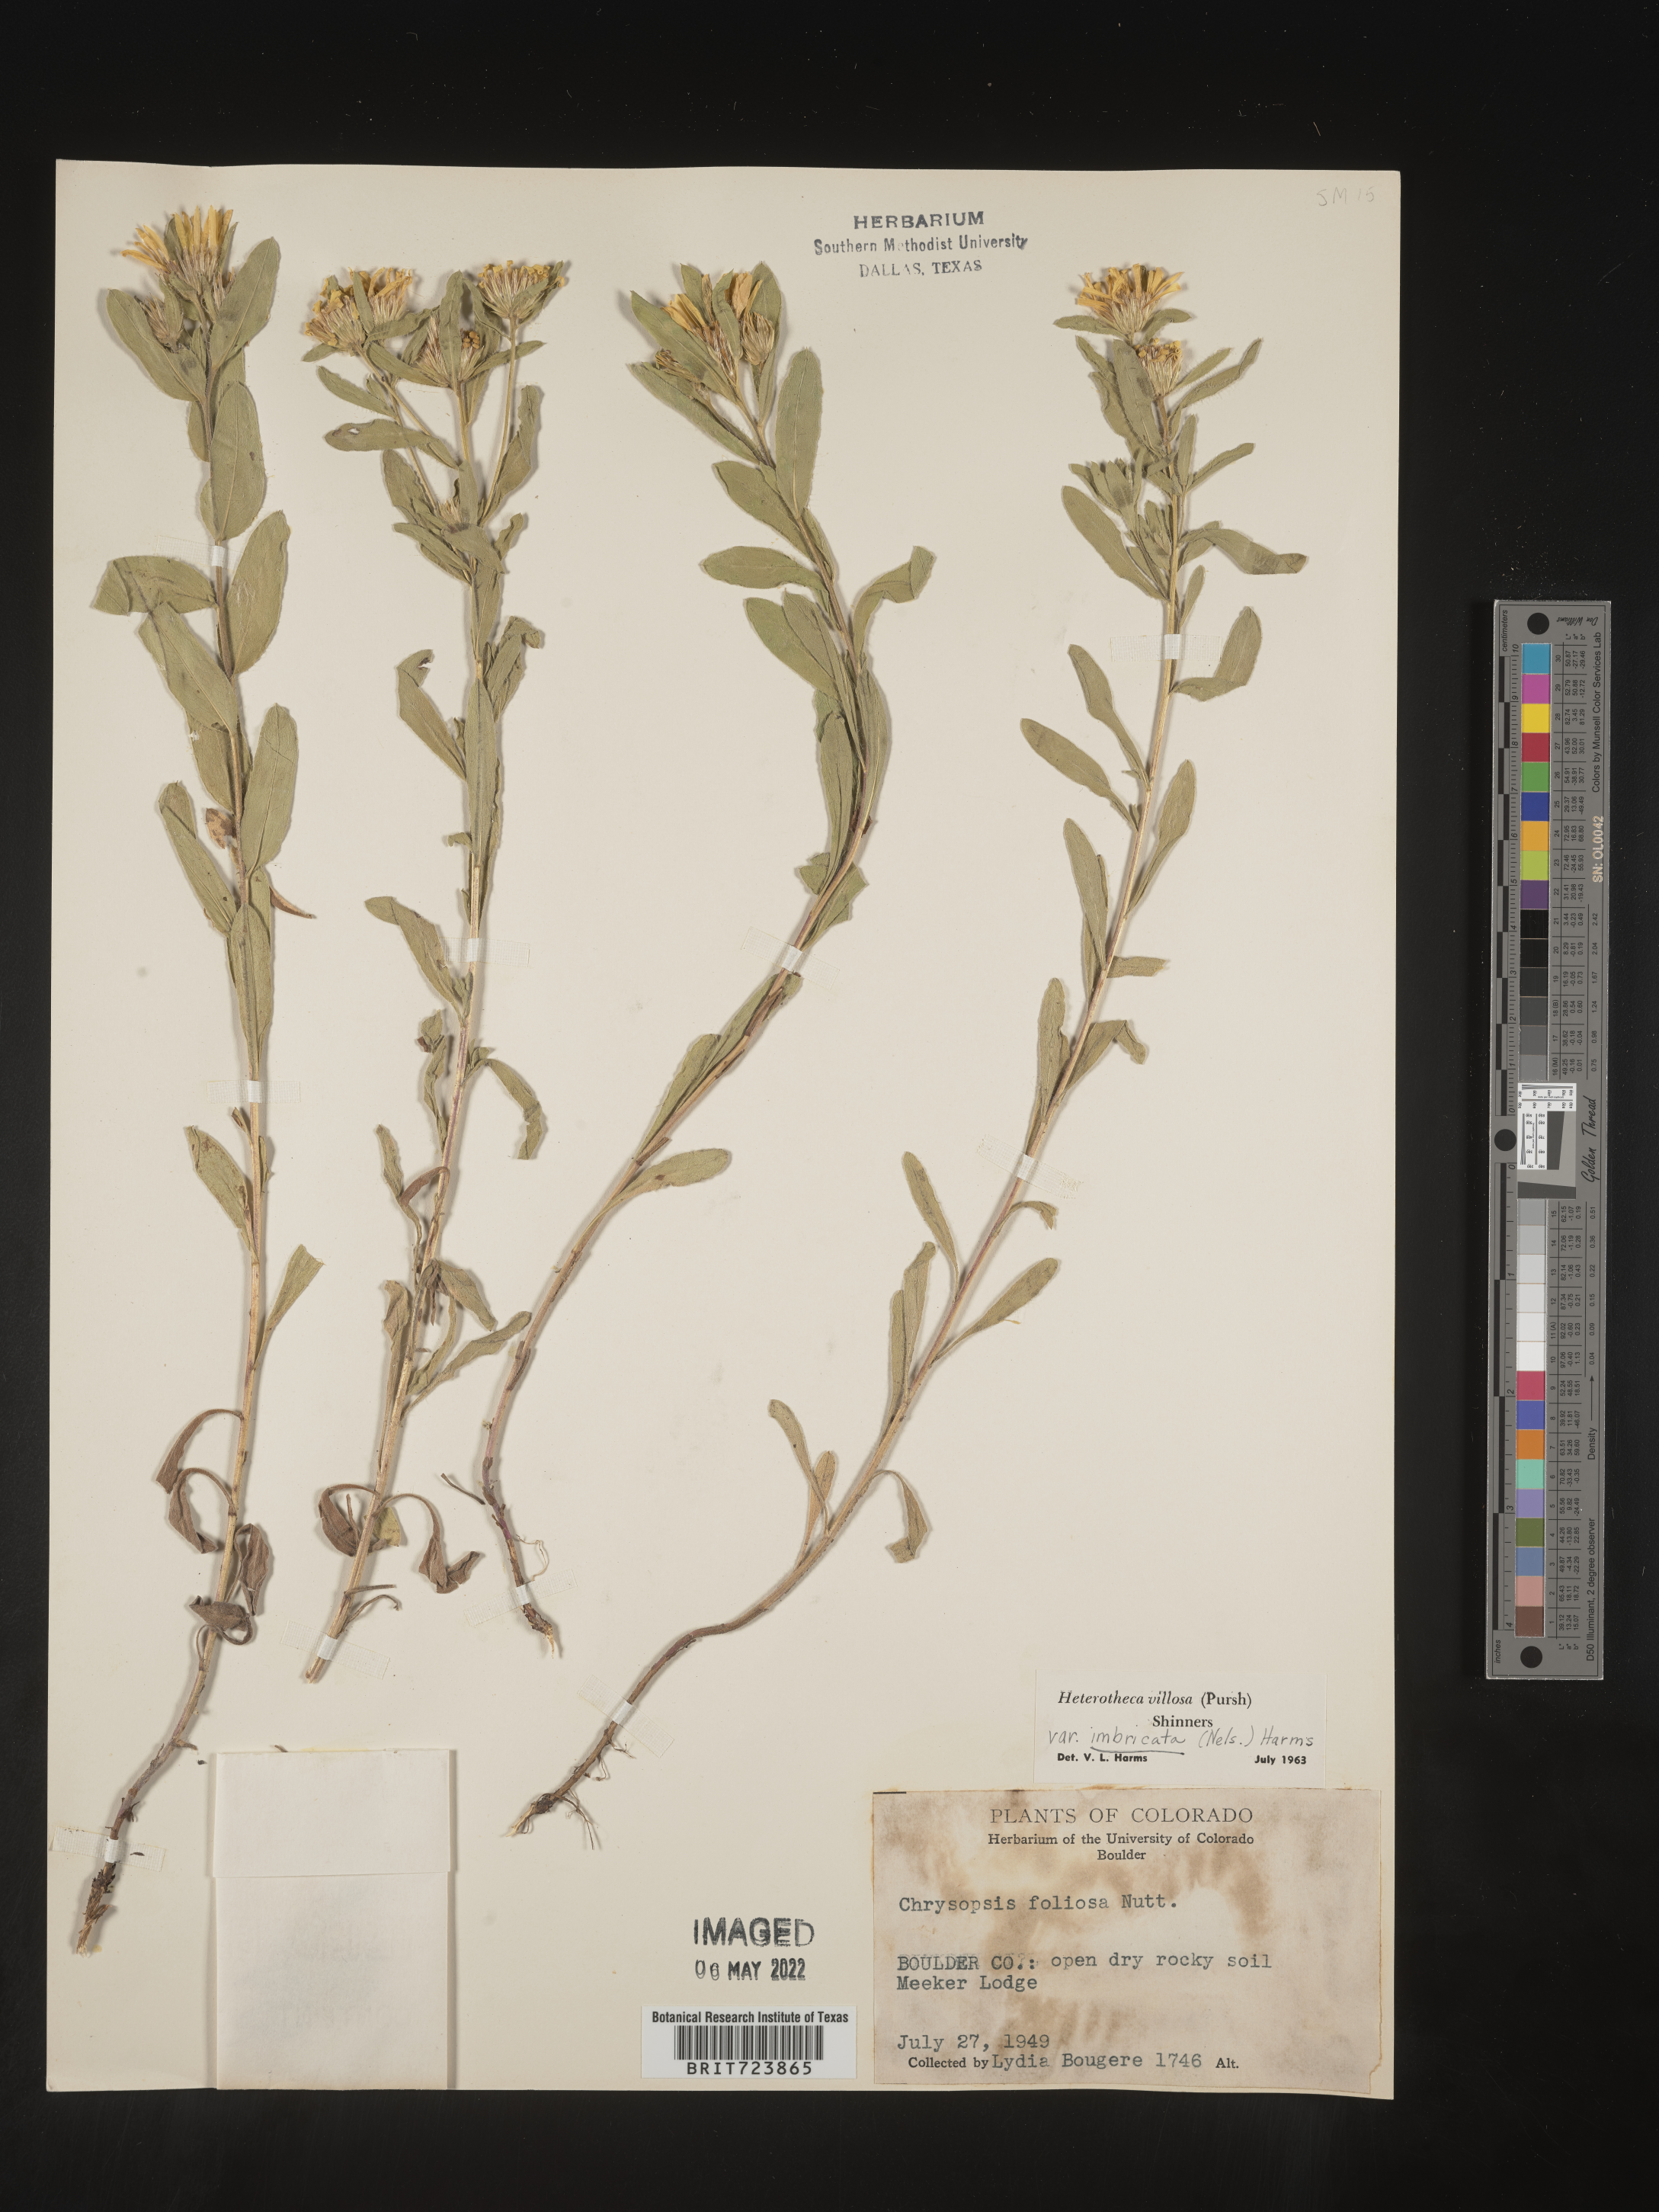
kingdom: Plantae
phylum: Tracheophyta
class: Magnoliopsida
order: Asterales
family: Asteraceae
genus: Heterotheca
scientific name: Heterotheca resinolens
